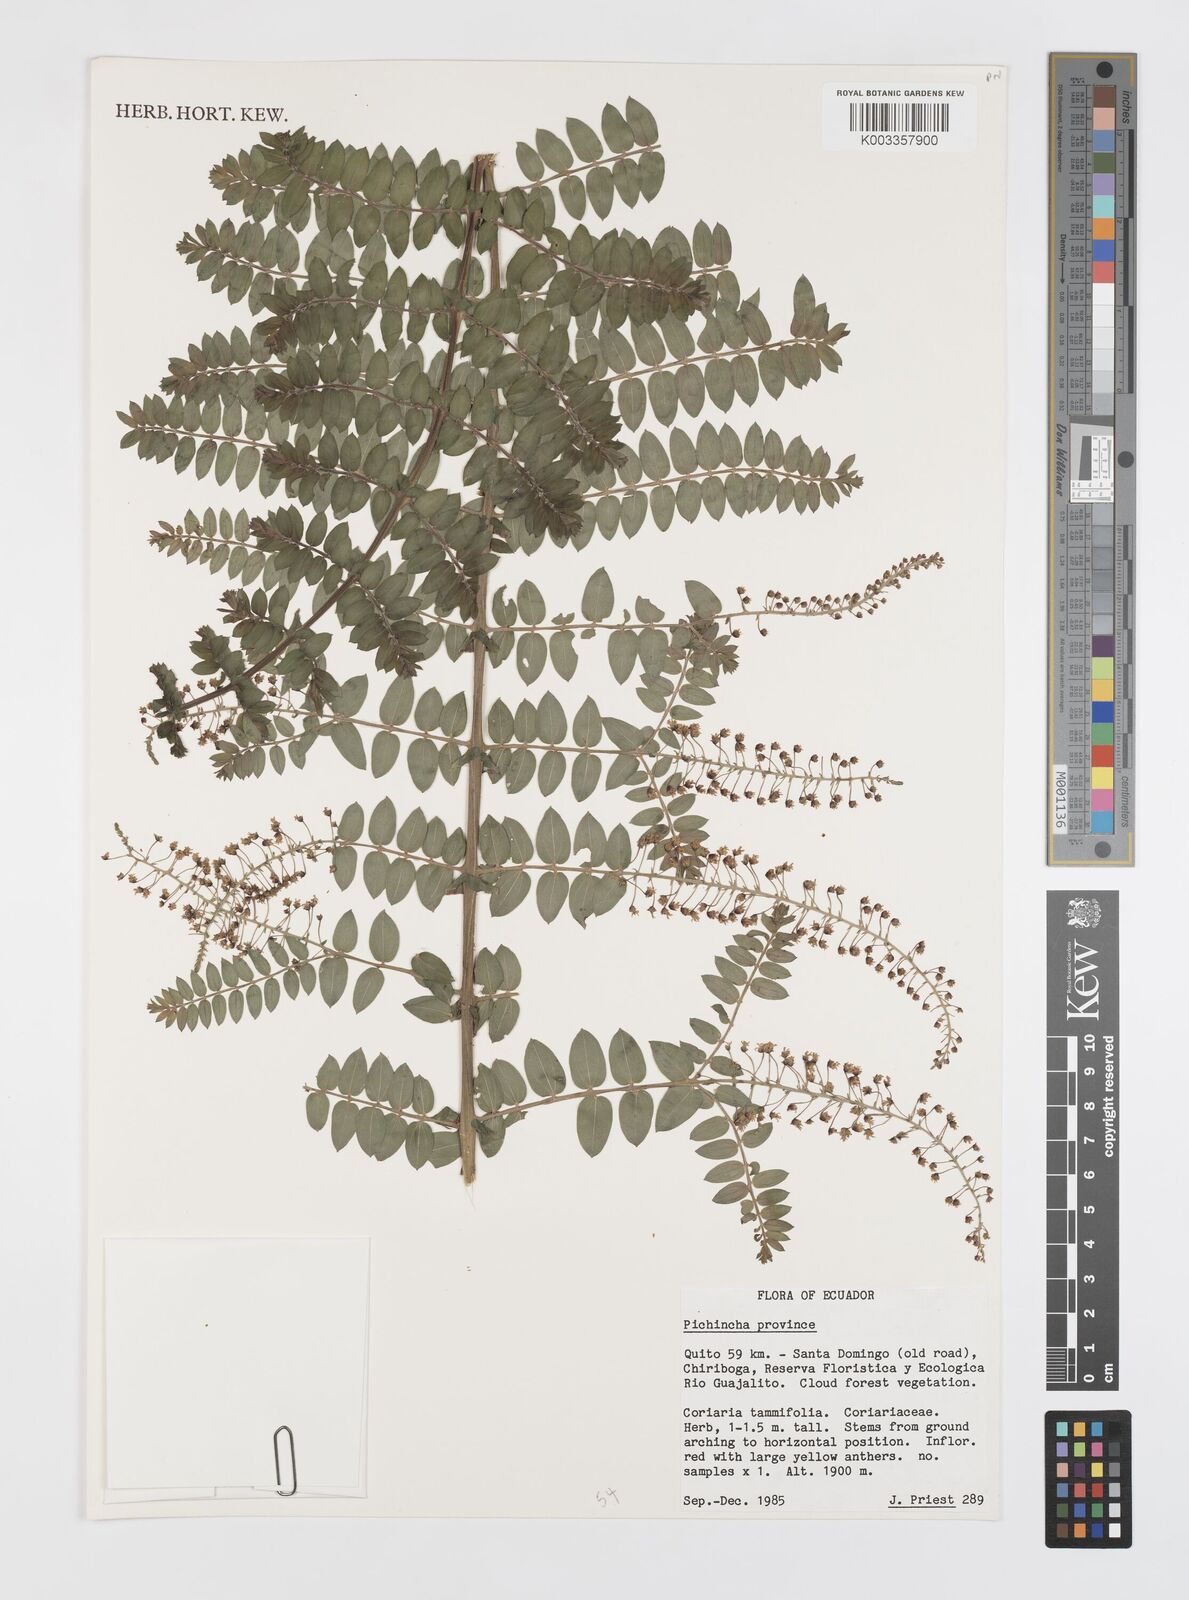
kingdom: Plantae
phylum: Tracheophyta
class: Magnoliopsida
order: Cucurbitales
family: Coriariaceae
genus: Coriaria
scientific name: Coriaria microphylla
